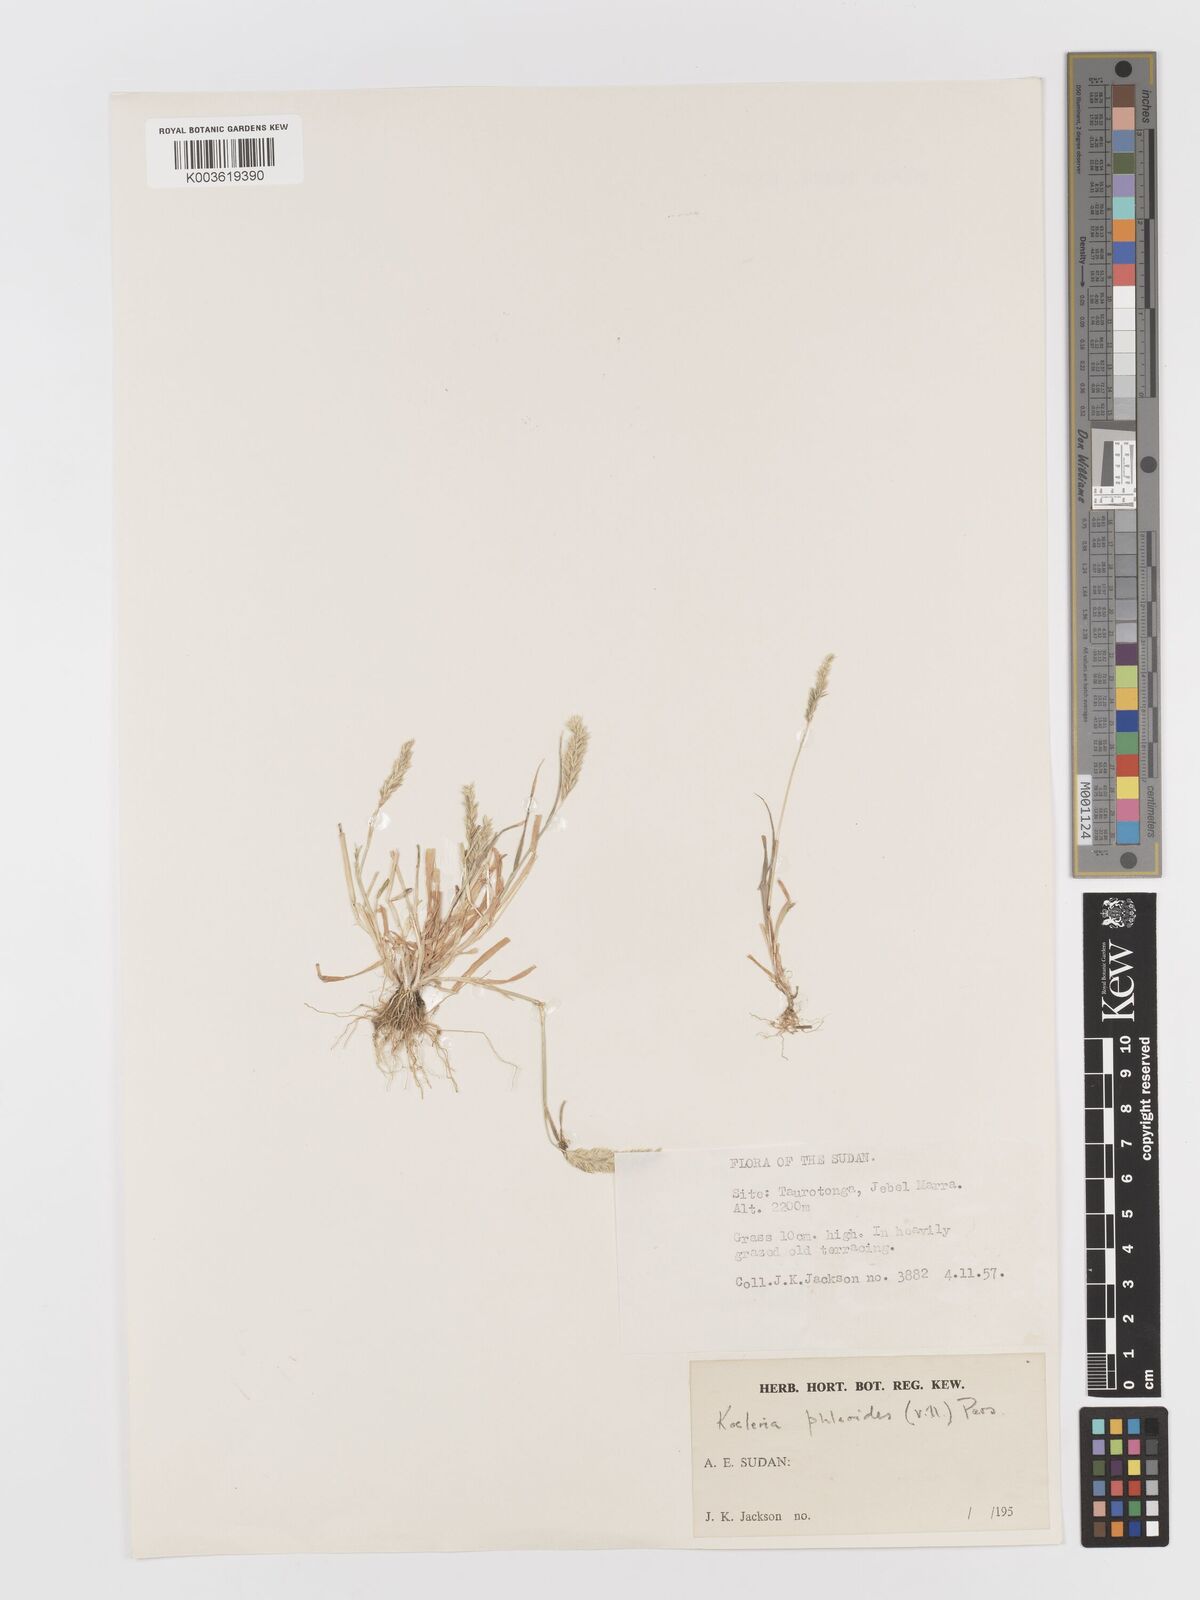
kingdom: Plantae
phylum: Tracheophyta
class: Liliopsida
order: Poales
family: Poaceae
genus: Rostraria
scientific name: Rostraria cristata
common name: Mediterranean hair-grass
